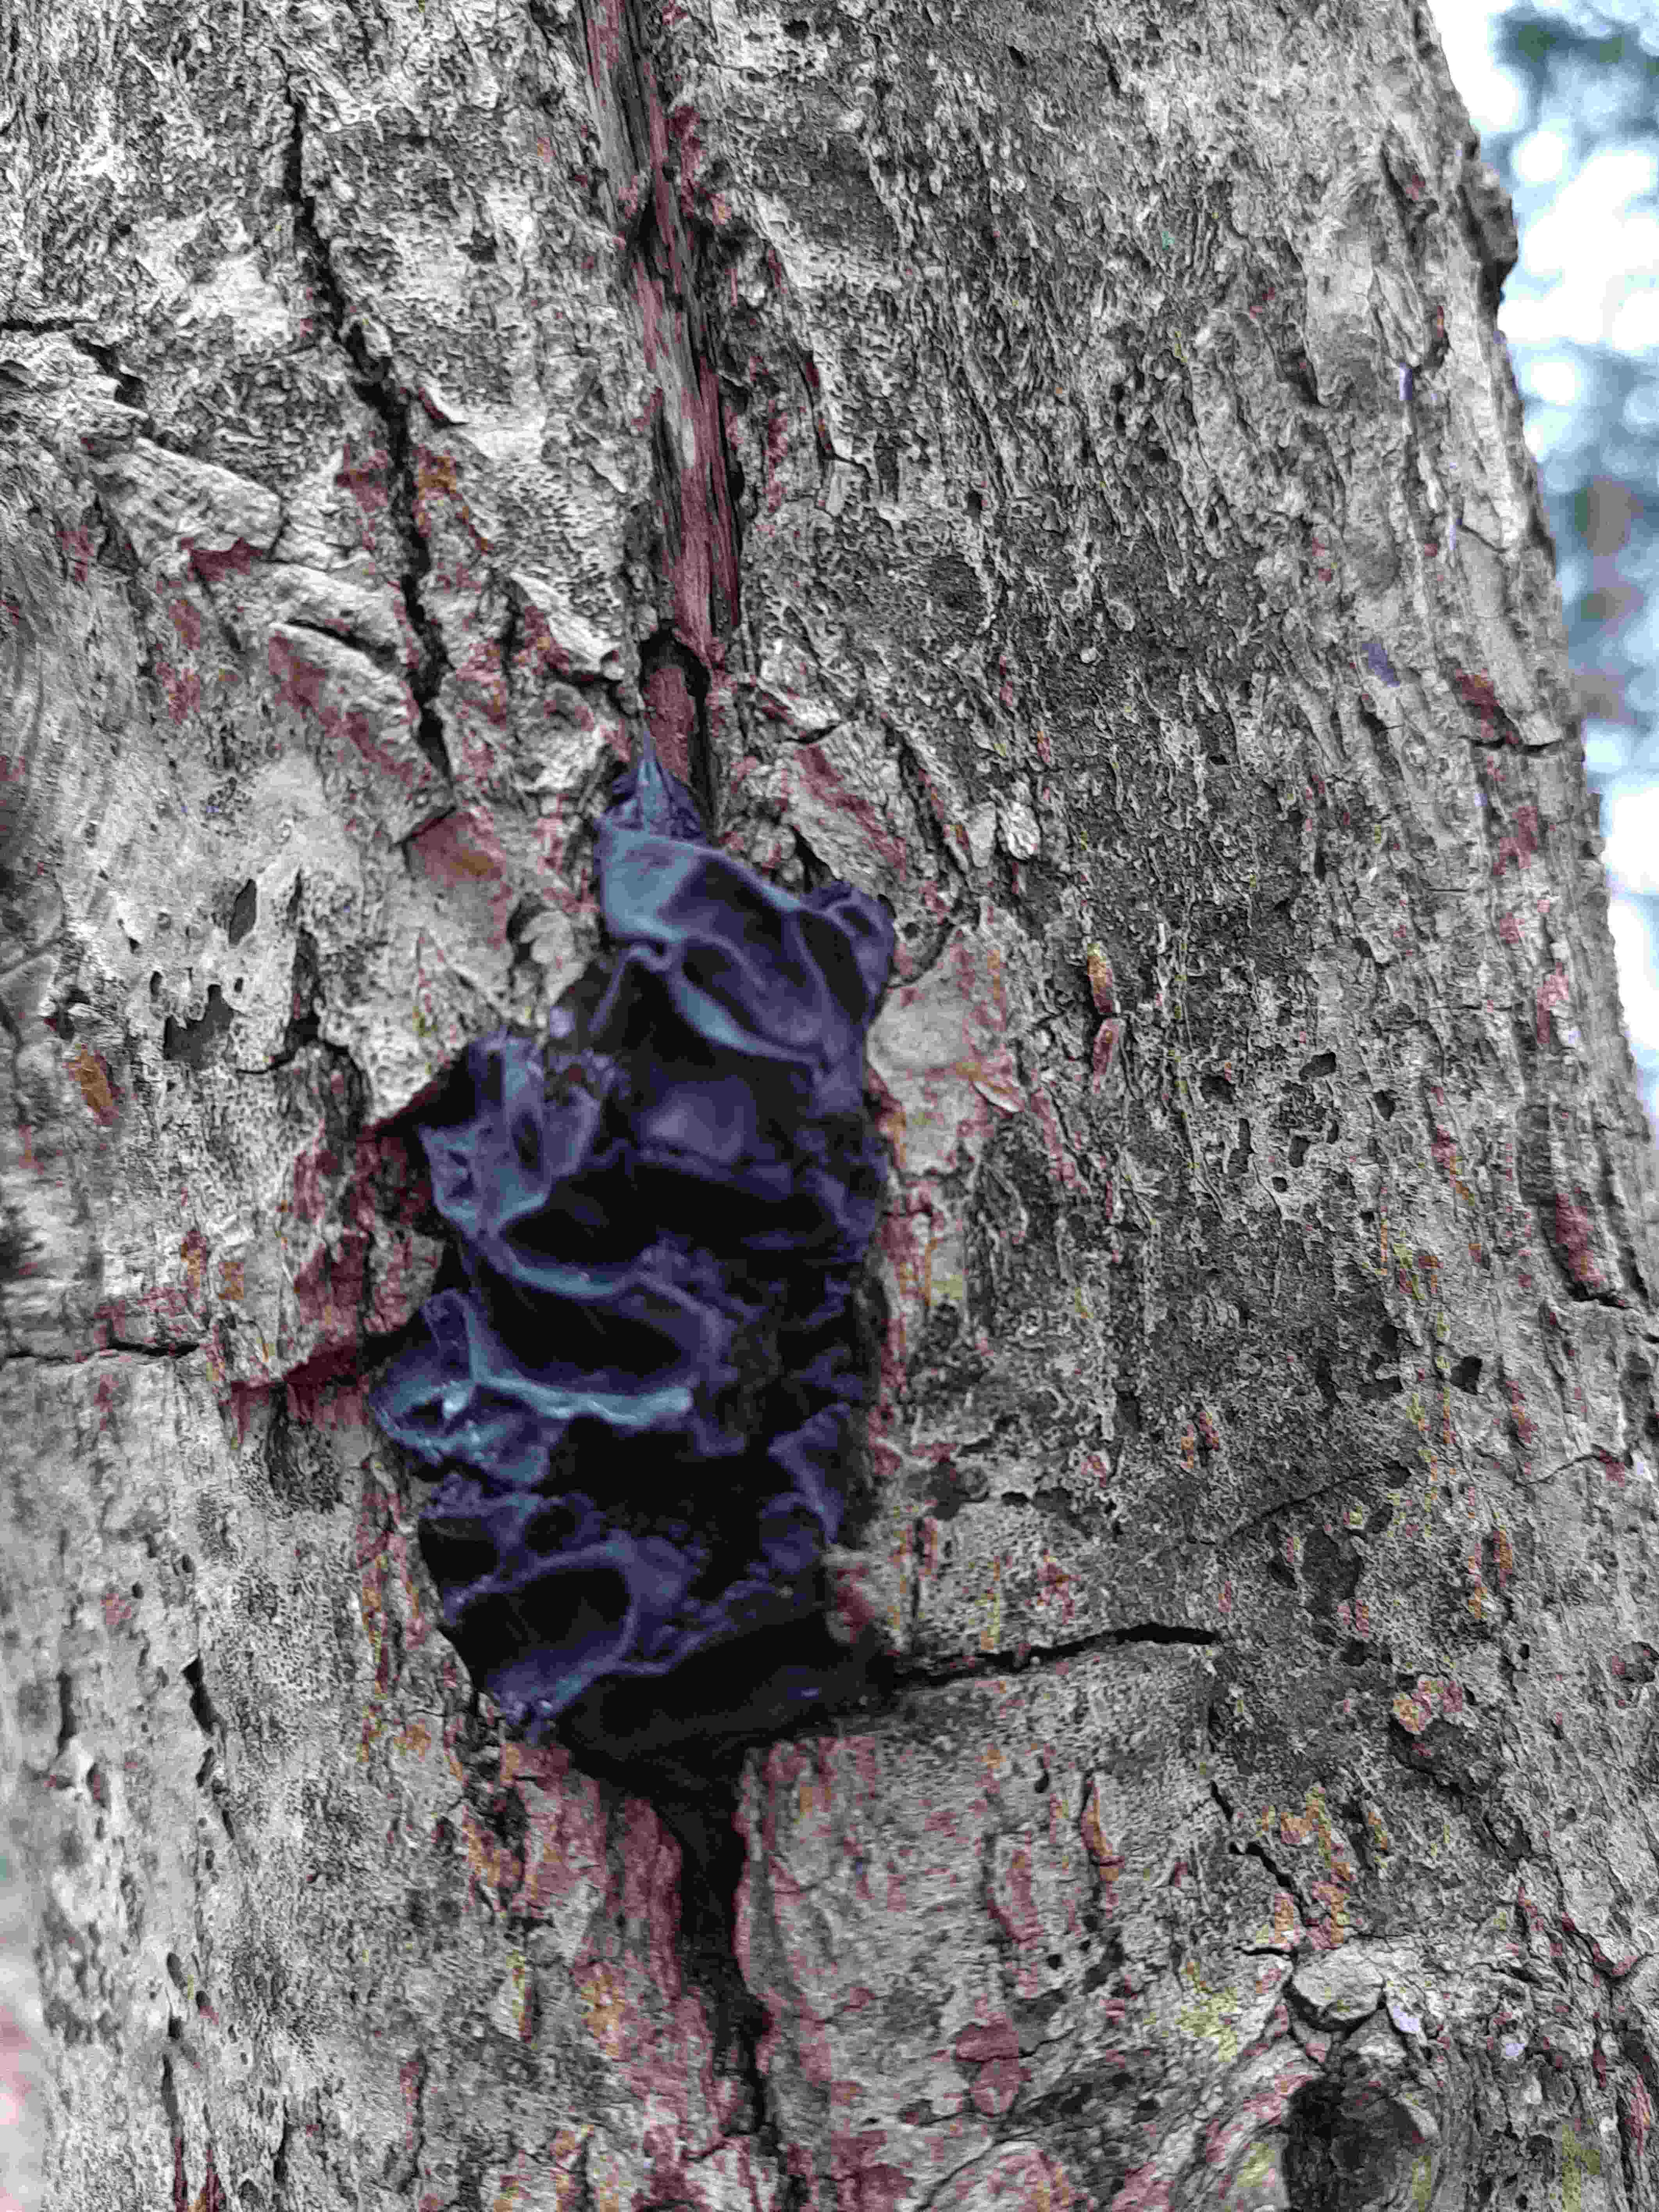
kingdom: Fungi
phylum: Basidiomycota
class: Agaricomycetes
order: Auriculariales
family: Auriculariaceae
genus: Exidia
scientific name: Exidia glandulosa
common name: ege-bævretop
